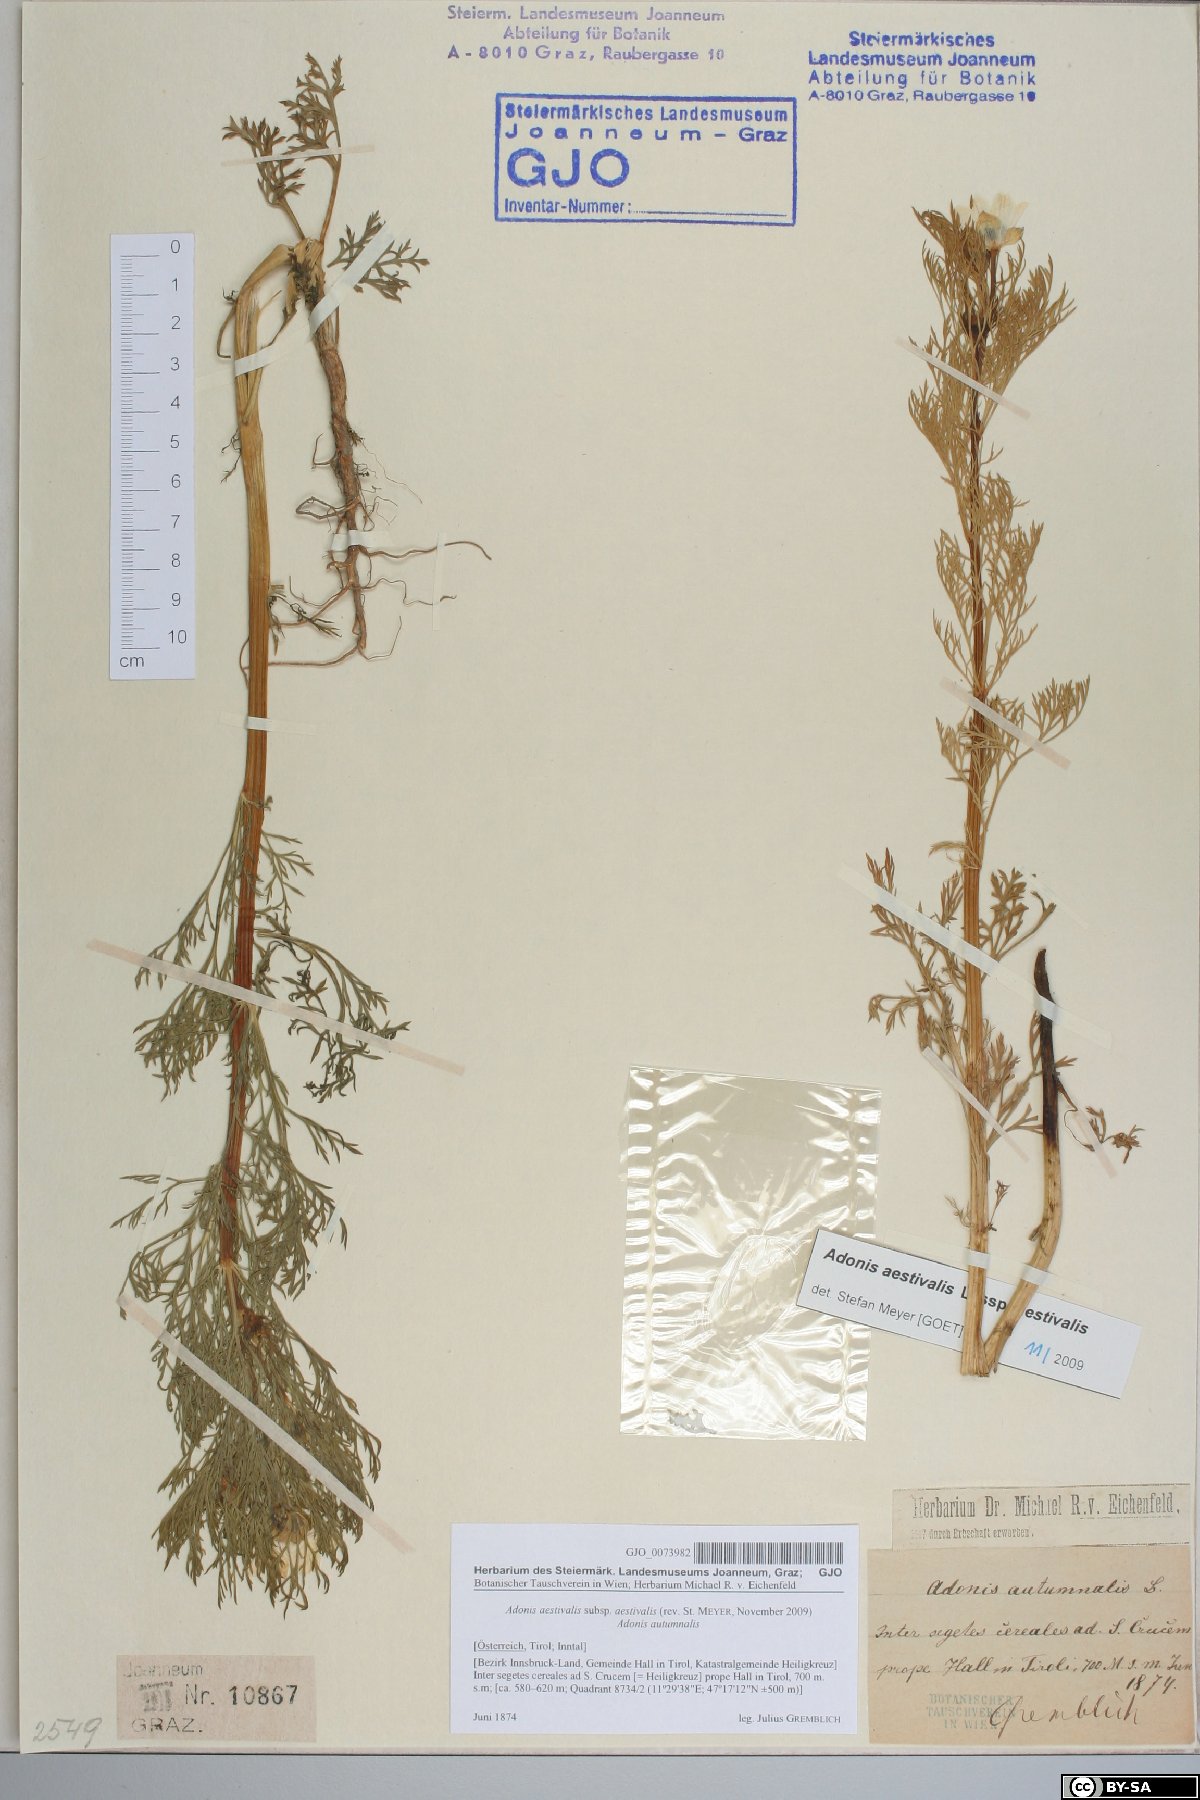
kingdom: Plantae
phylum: Tracheophyta
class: Magnoliopsida
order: Ranunculales
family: Ranunculaceae
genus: Adonis
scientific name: Adonis aestivalis
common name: Summer pheasant's-eye
